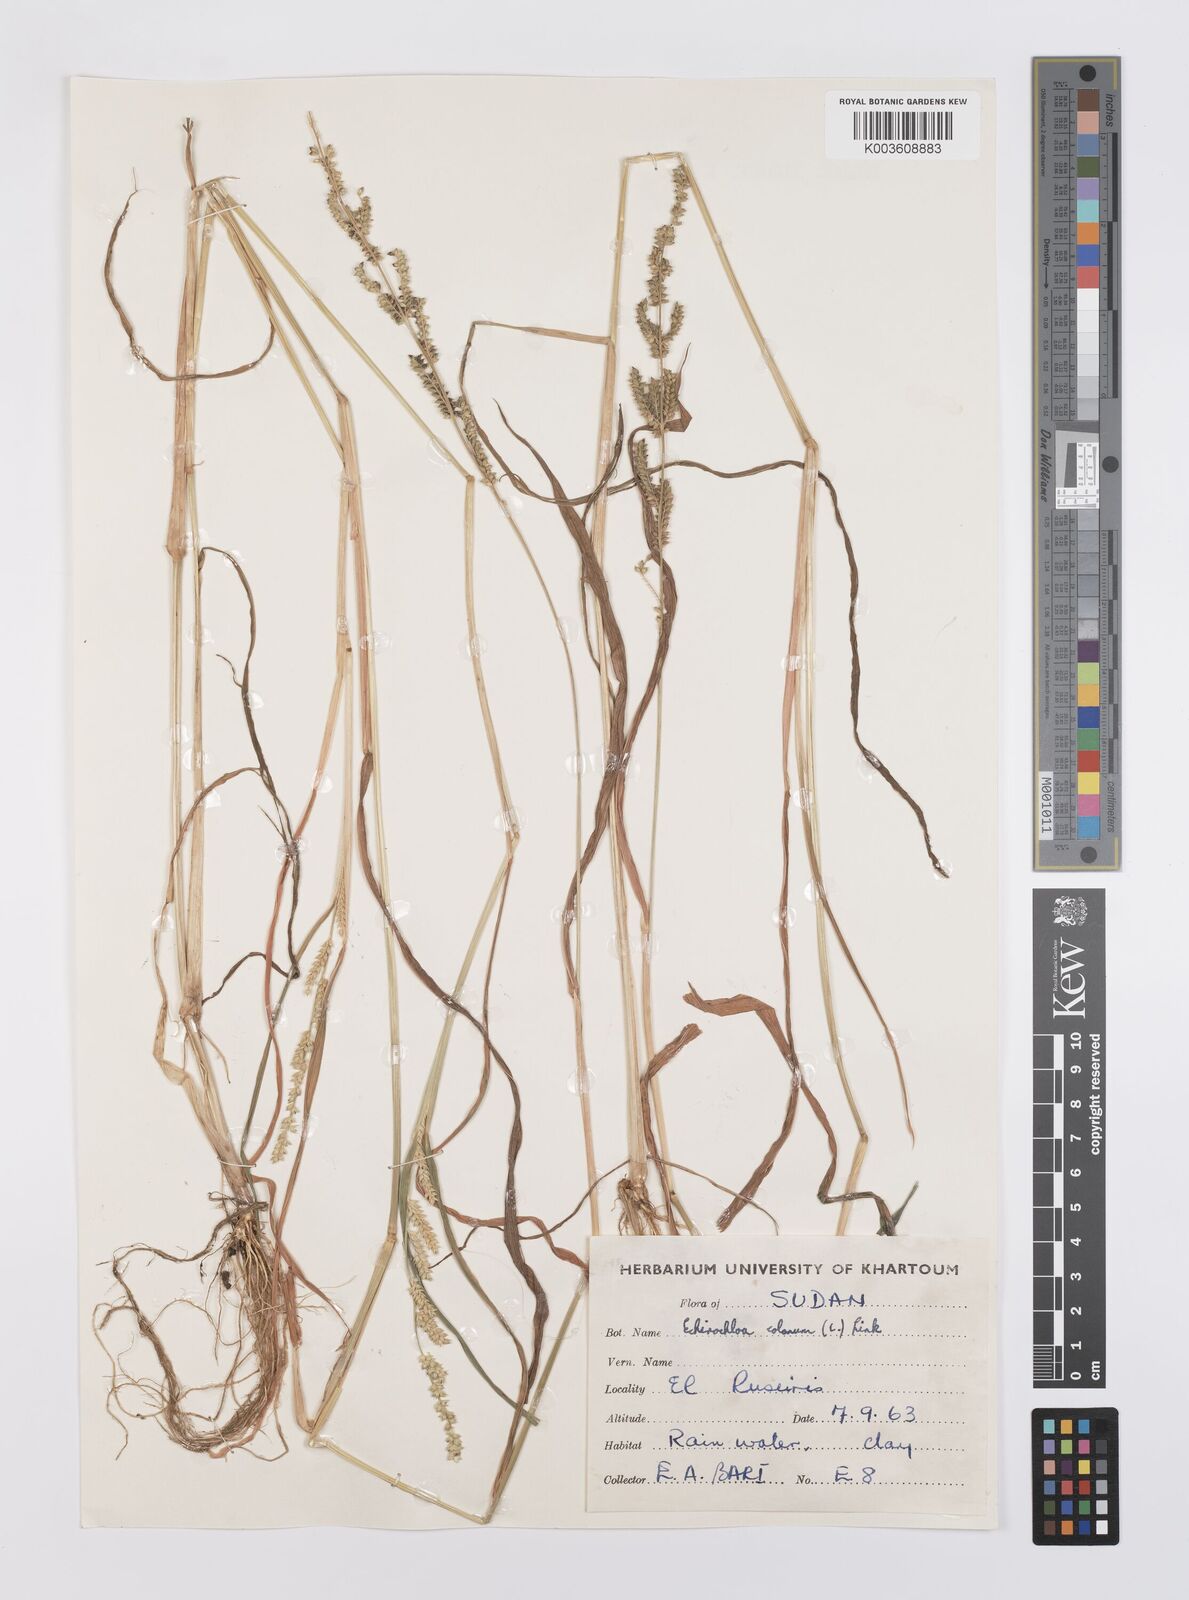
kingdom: Plantae
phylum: Tracheophyta
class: Liliopsida
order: Poales
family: Poaceae
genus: Echinochloa
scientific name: Echinochloa colonum
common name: Jungle rice
